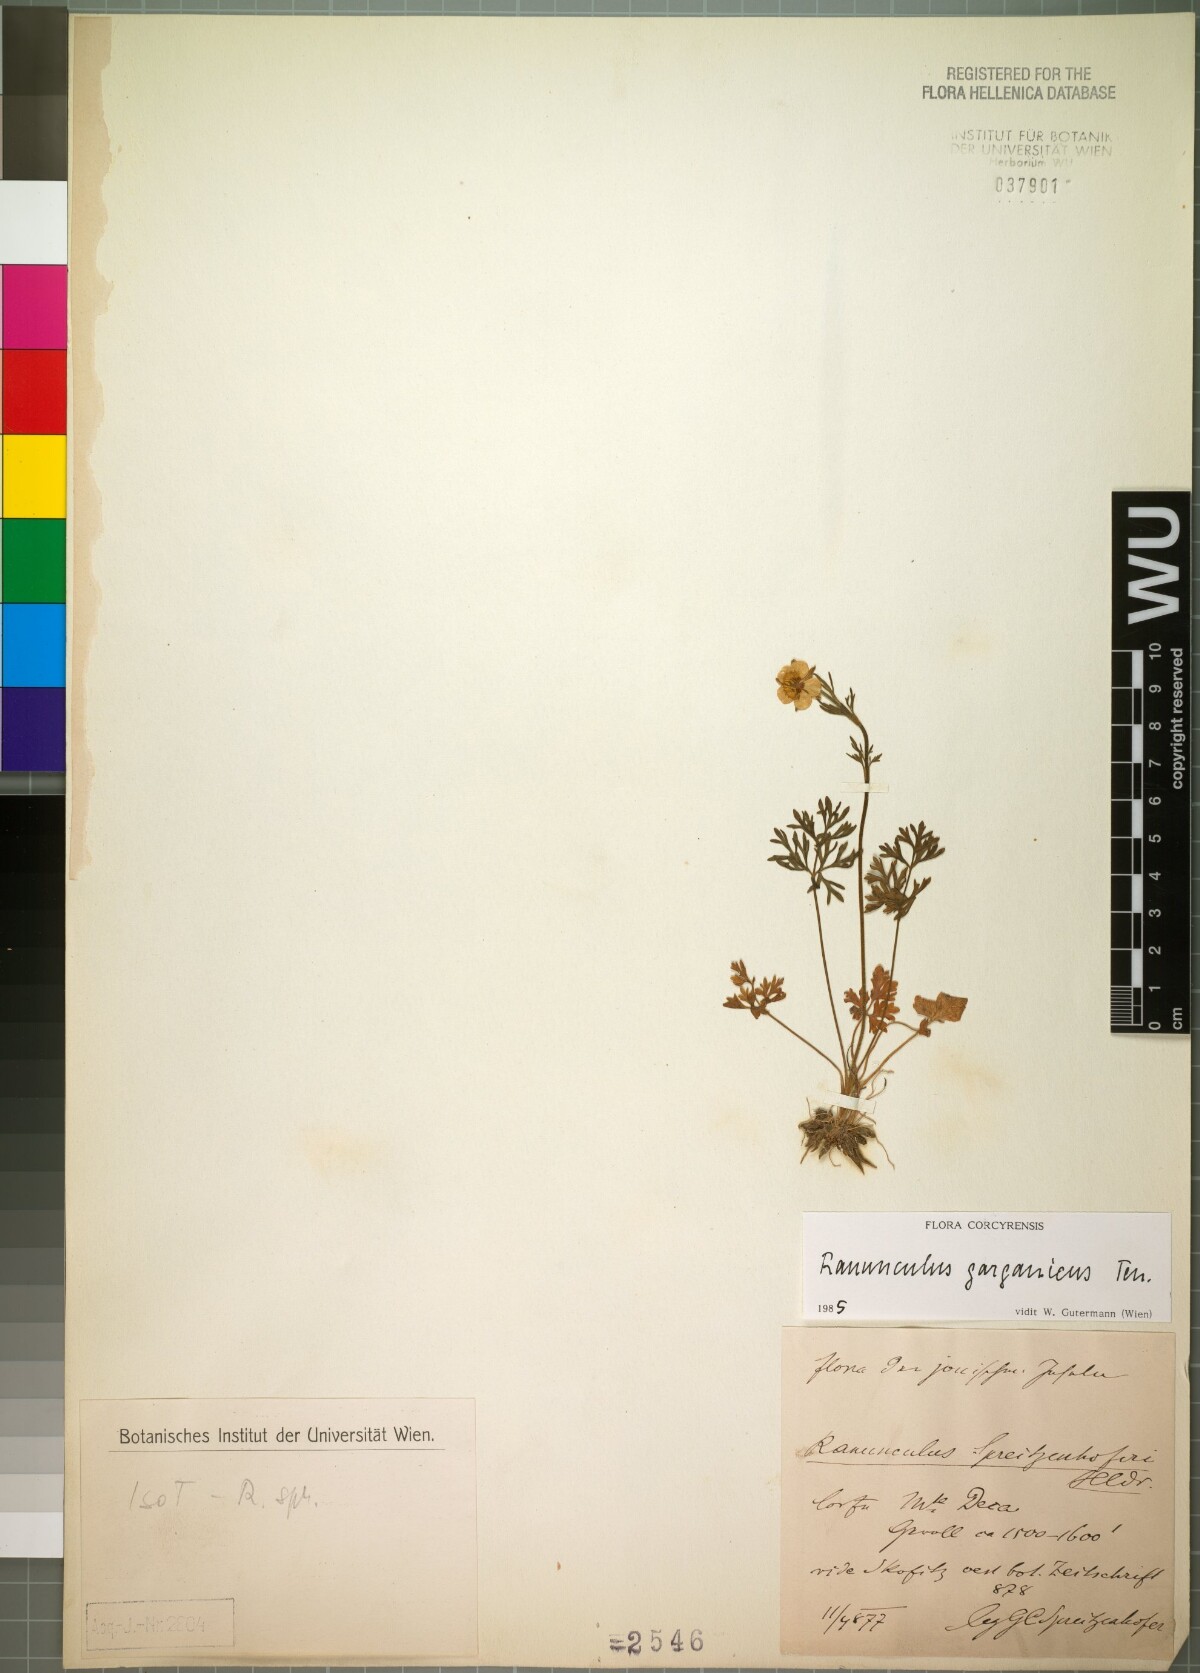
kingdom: Plantae
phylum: Tracheophyta
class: Magnoliopsida
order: Ranunculales
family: Ranunculaceae
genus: Ranunculus
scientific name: Ranunculus garganicus
